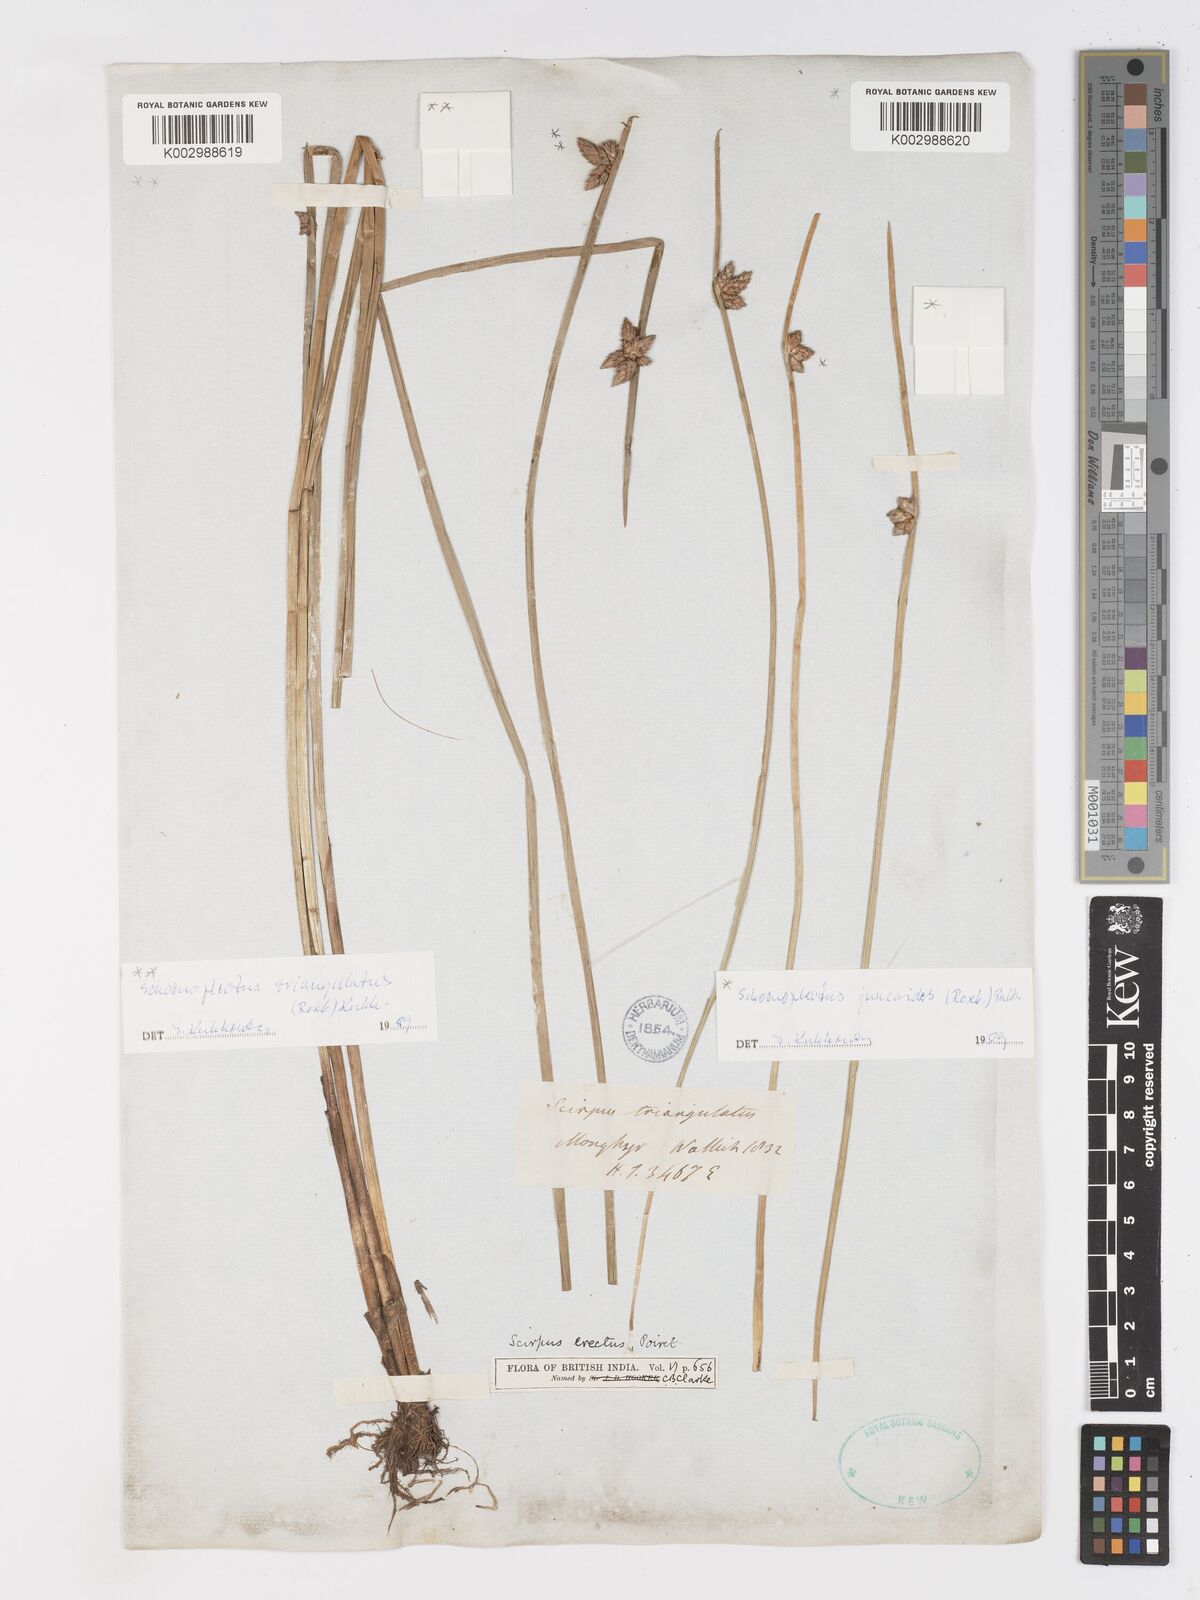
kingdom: Plantae
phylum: Tracheophyta
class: Liliopsida
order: Poales
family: Cyperaceae
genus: Schoenoplectiella
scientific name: Schoenoplectiella juncoides
